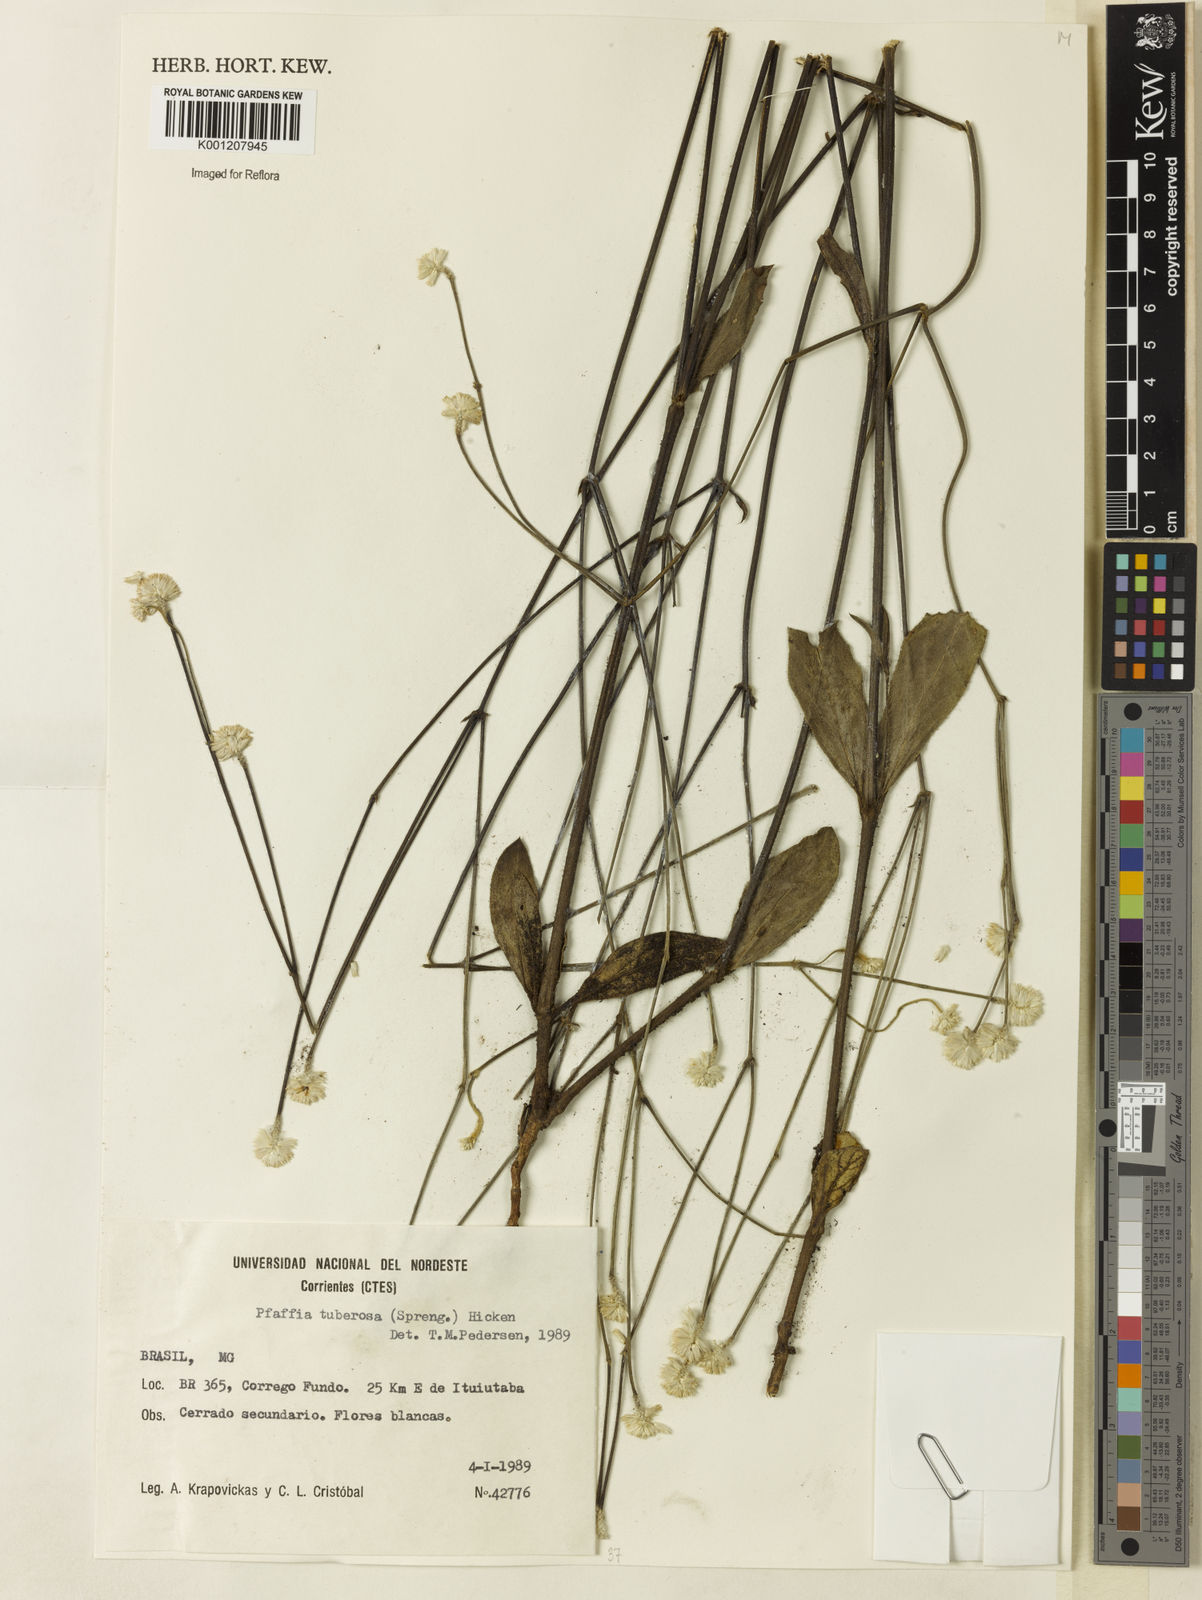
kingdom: Plantae
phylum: Tracheophyta
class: Magnoliopsida
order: Caryophyllales
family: Amaranthaceae
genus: Pfaffia
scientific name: Pfaffia tuberosa
